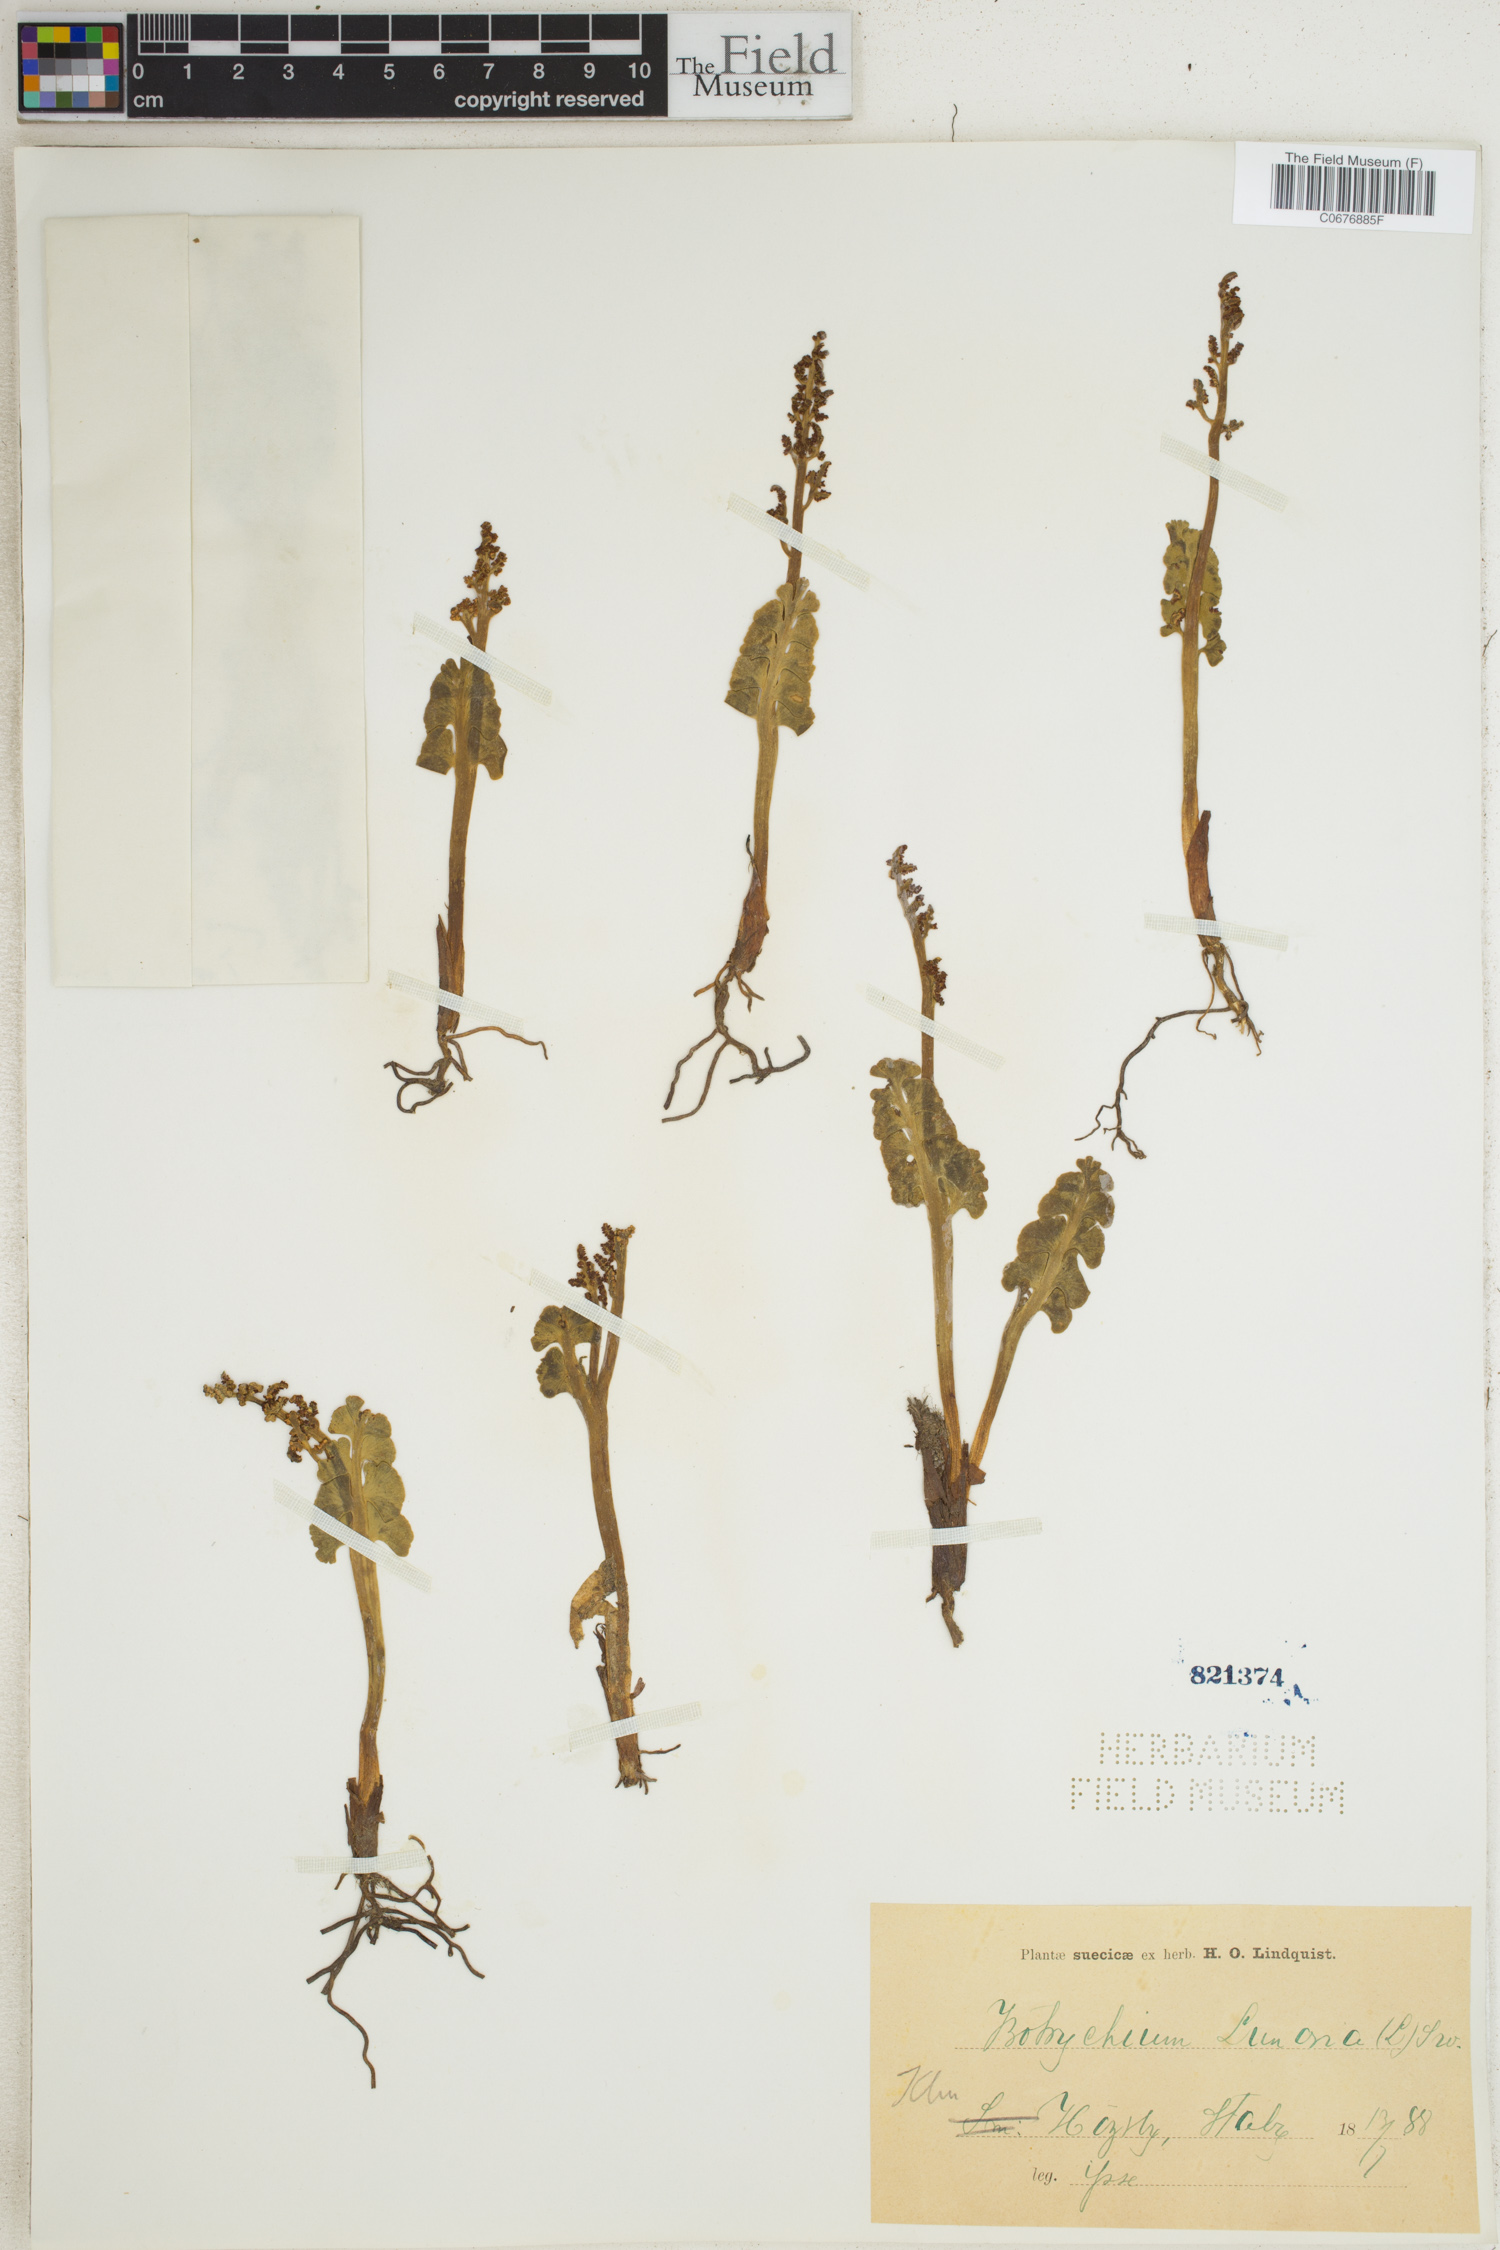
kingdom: Plantae
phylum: Tracheophyta
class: Polypodiopsida
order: Ophioglossales
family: Ophioglossaceae
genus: Botrychium
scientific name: Botrychium lunaria
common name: Moonwort
